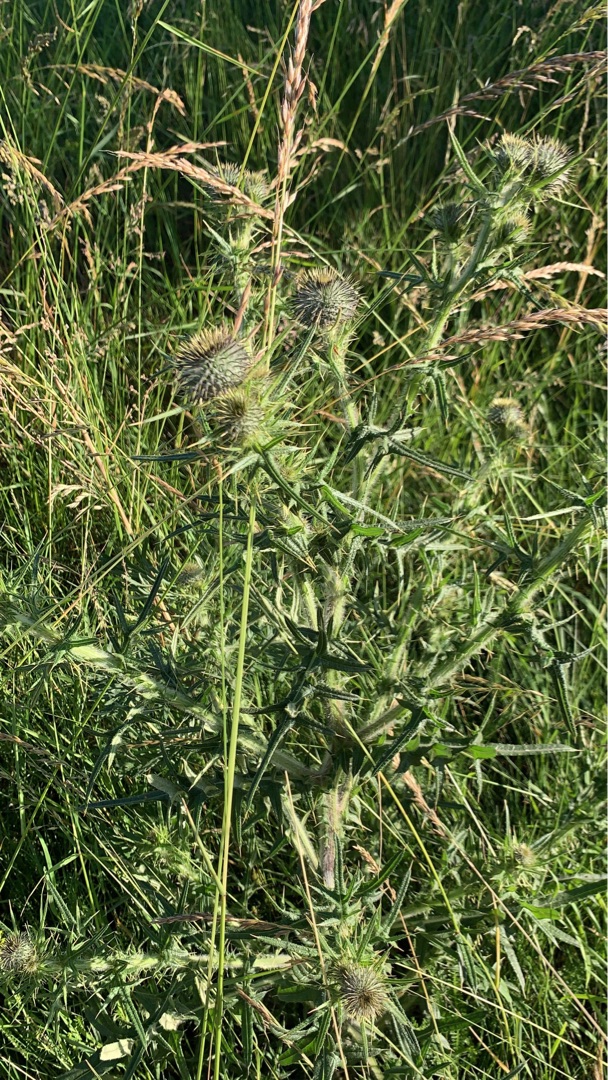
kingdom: Plantae
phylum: Tracheophyta
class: Magnoliopsida
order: Asterales
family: Asteraceae
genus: Cirsium
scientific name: Cirsium vulgare
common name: Horse-tidsel
